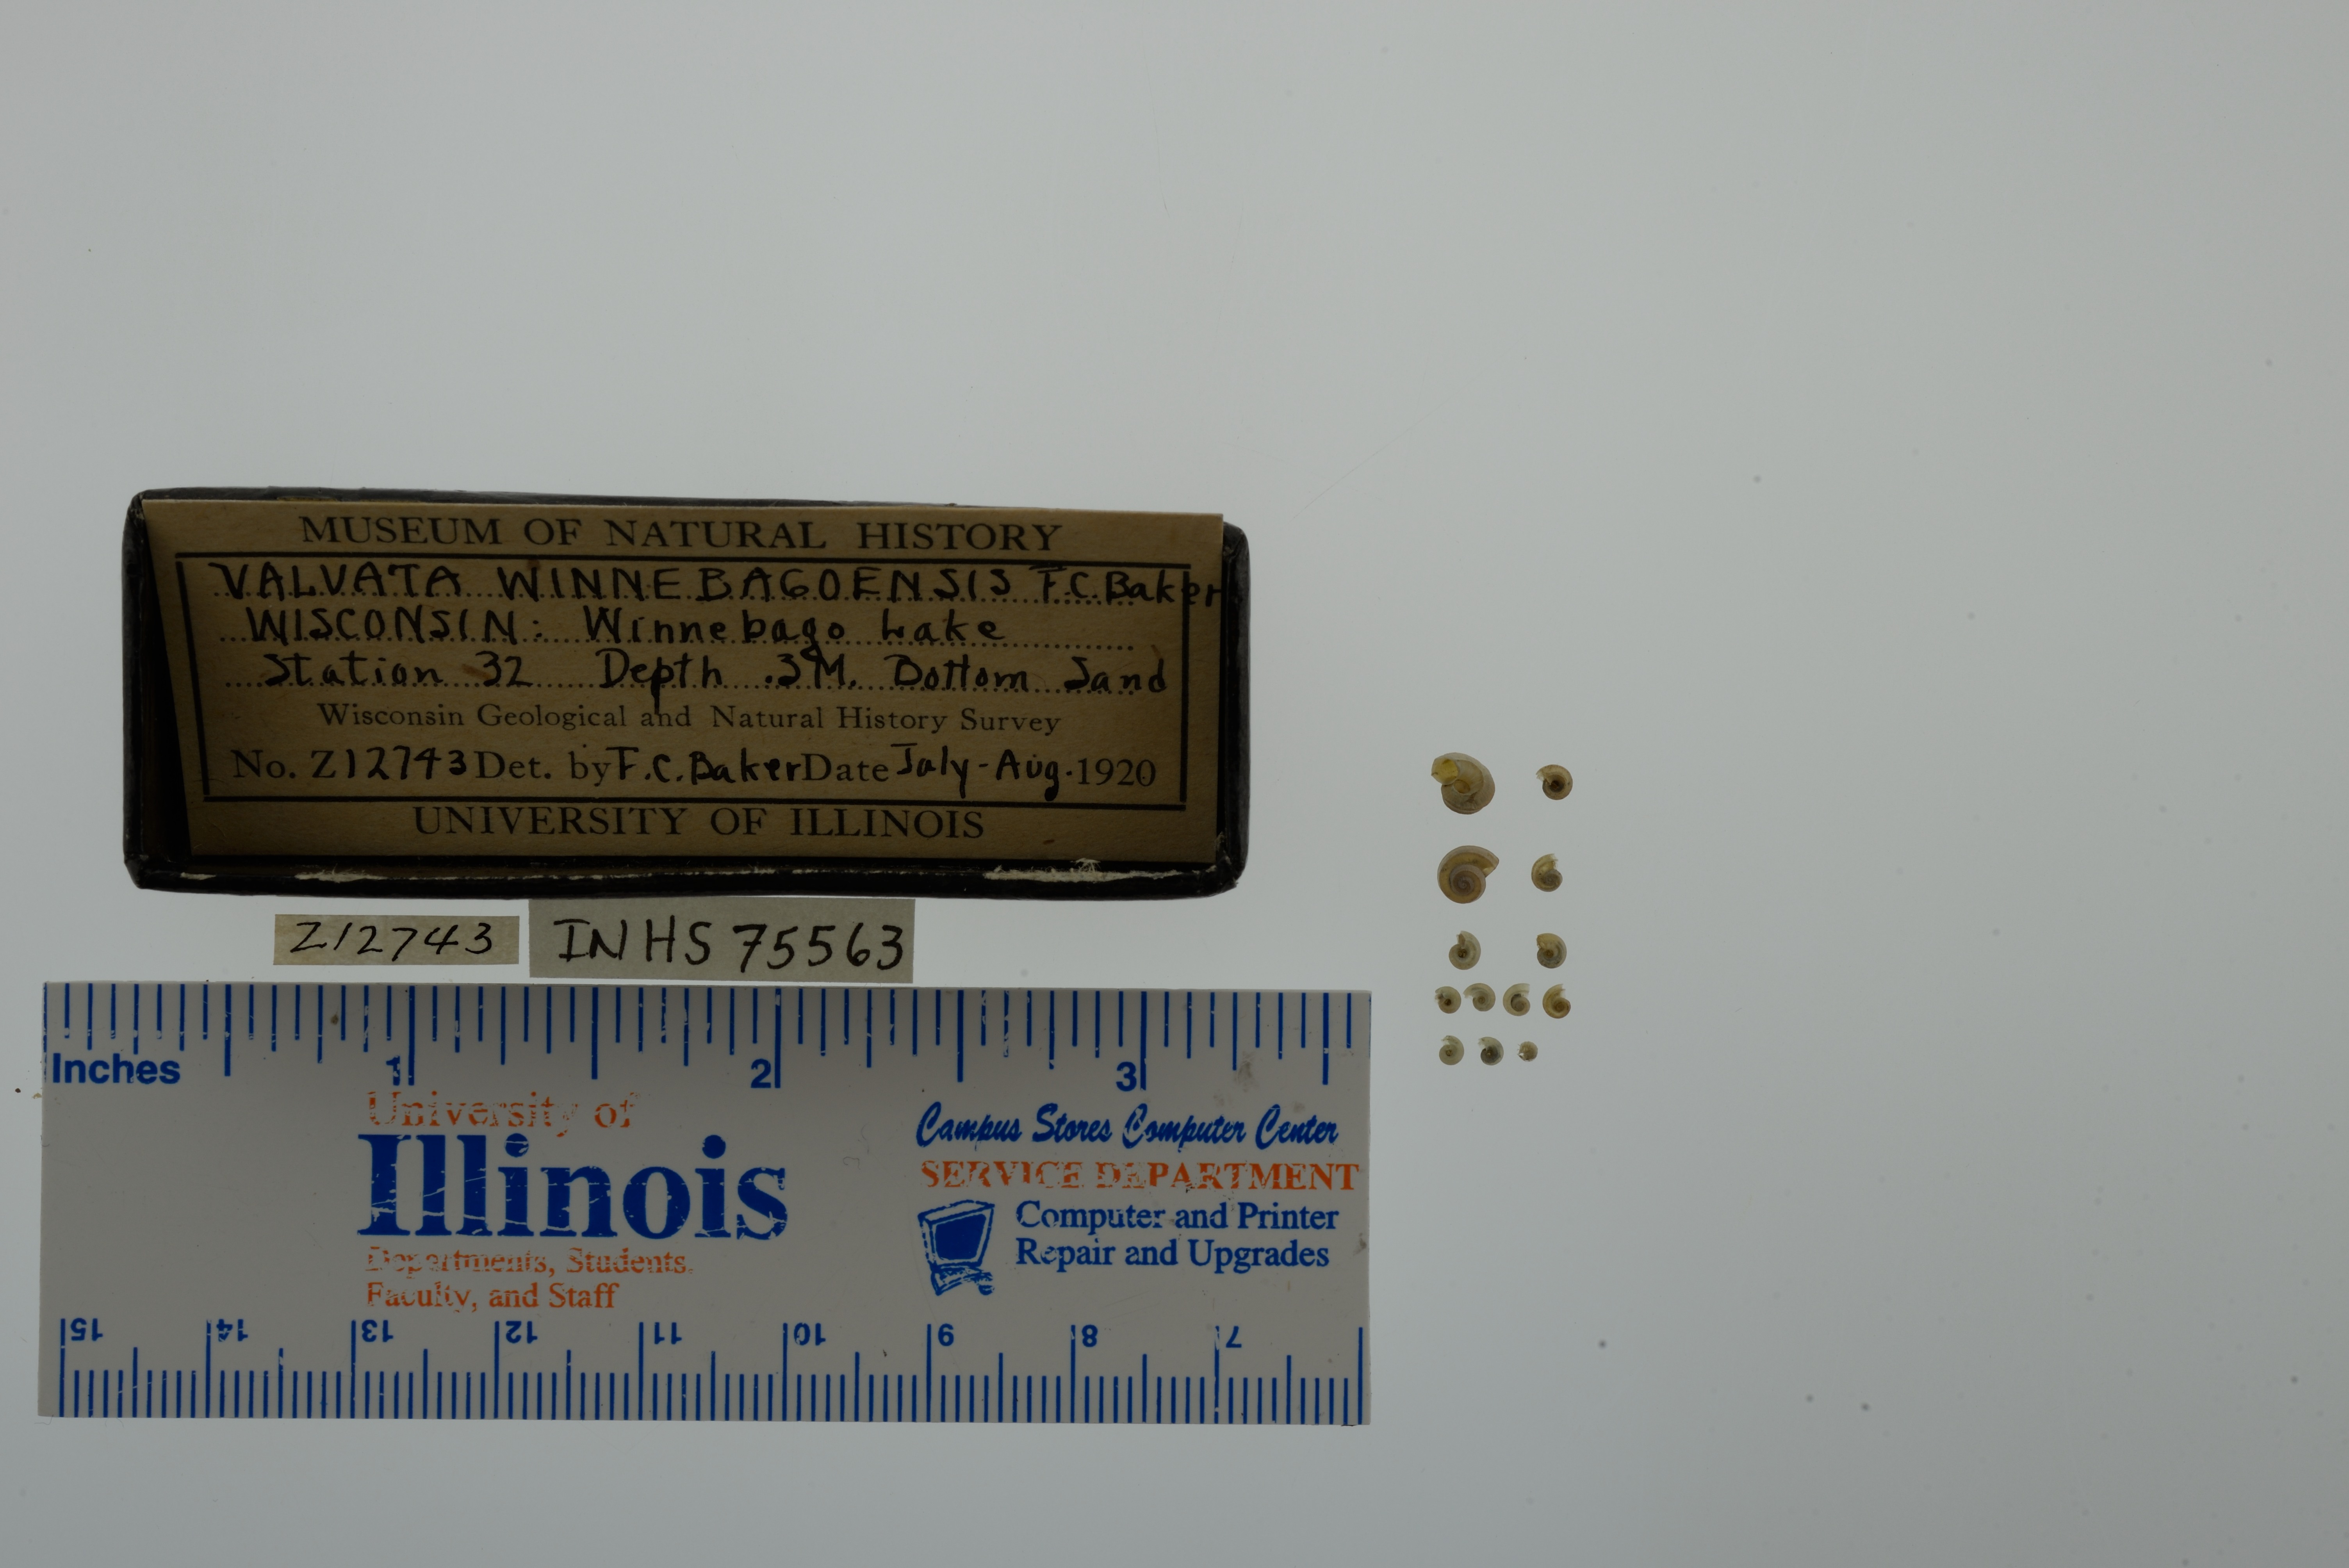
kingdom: Animalia
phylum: Mollusca
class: Gastropoda
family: Valvatidae
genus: Valvata
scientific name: Valvata winnebagoensis
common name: Flanged valvata
